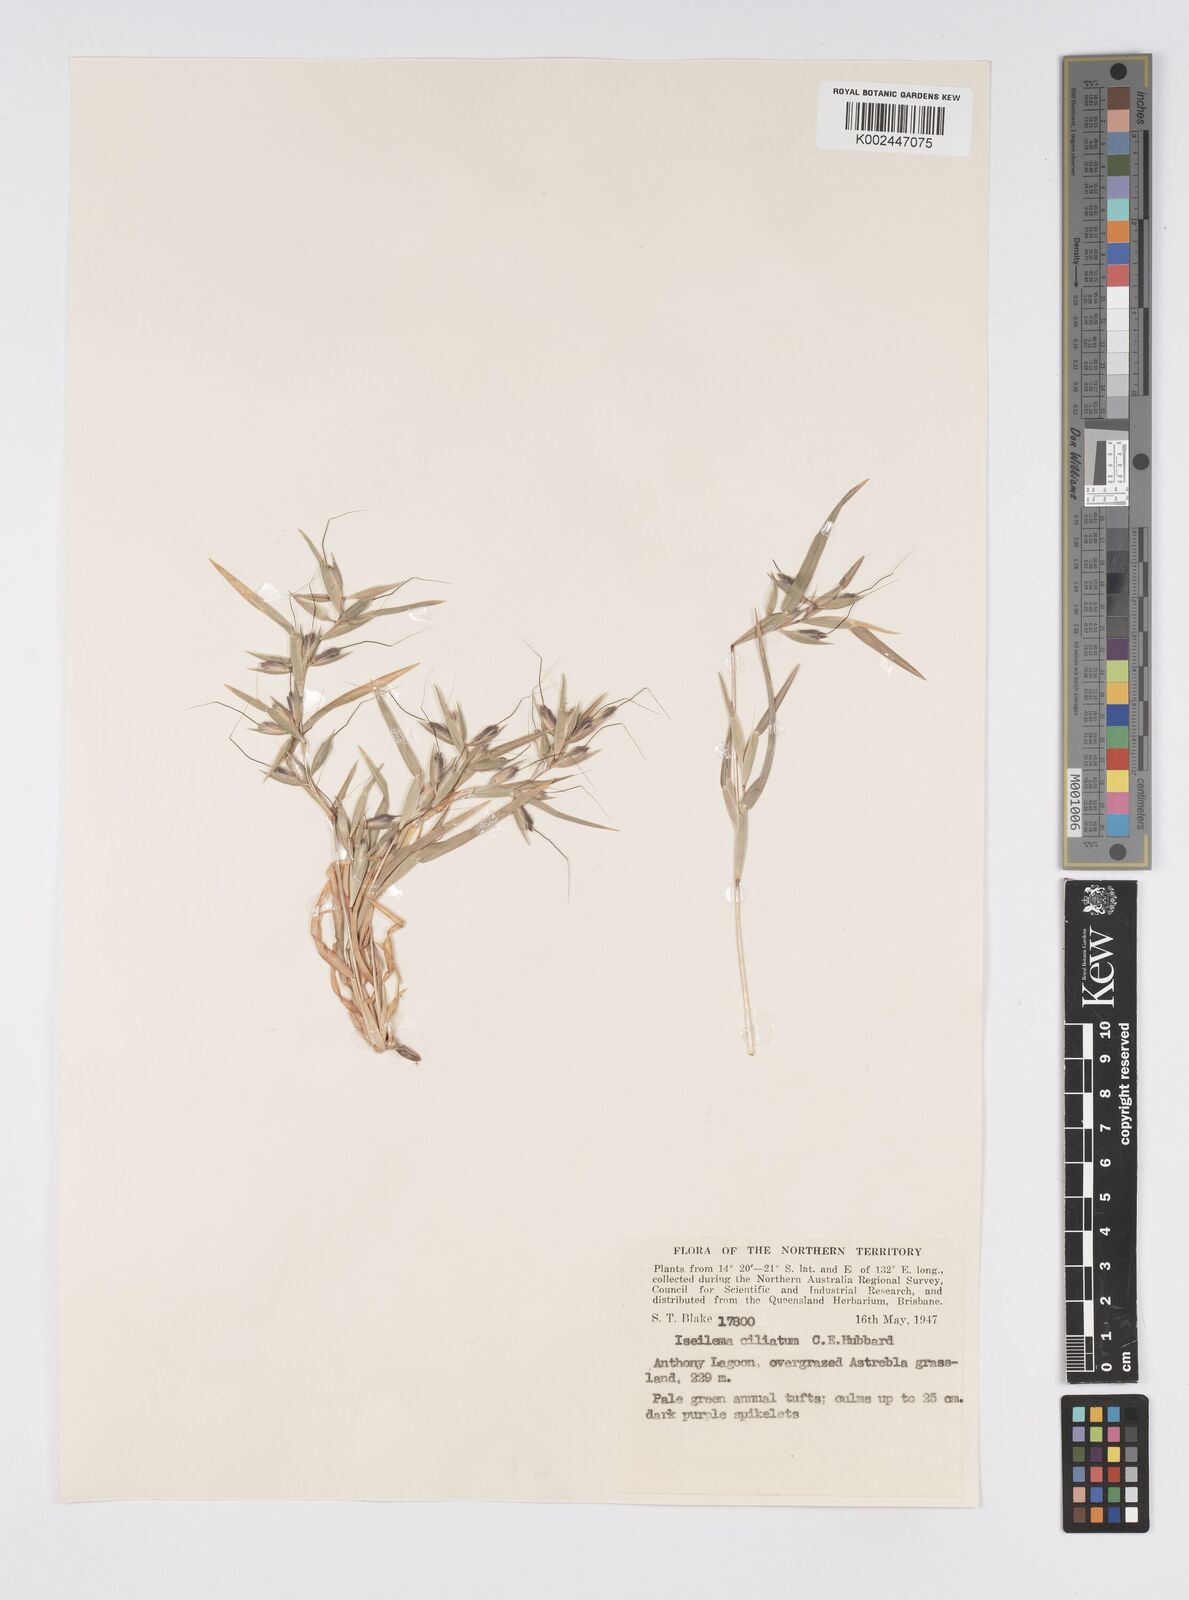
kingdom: Plantae
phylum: Tracheophyta
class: Liliopsida
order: Poales
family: Poaceae
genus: Iseilema
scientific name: Iseilema ciliatum
